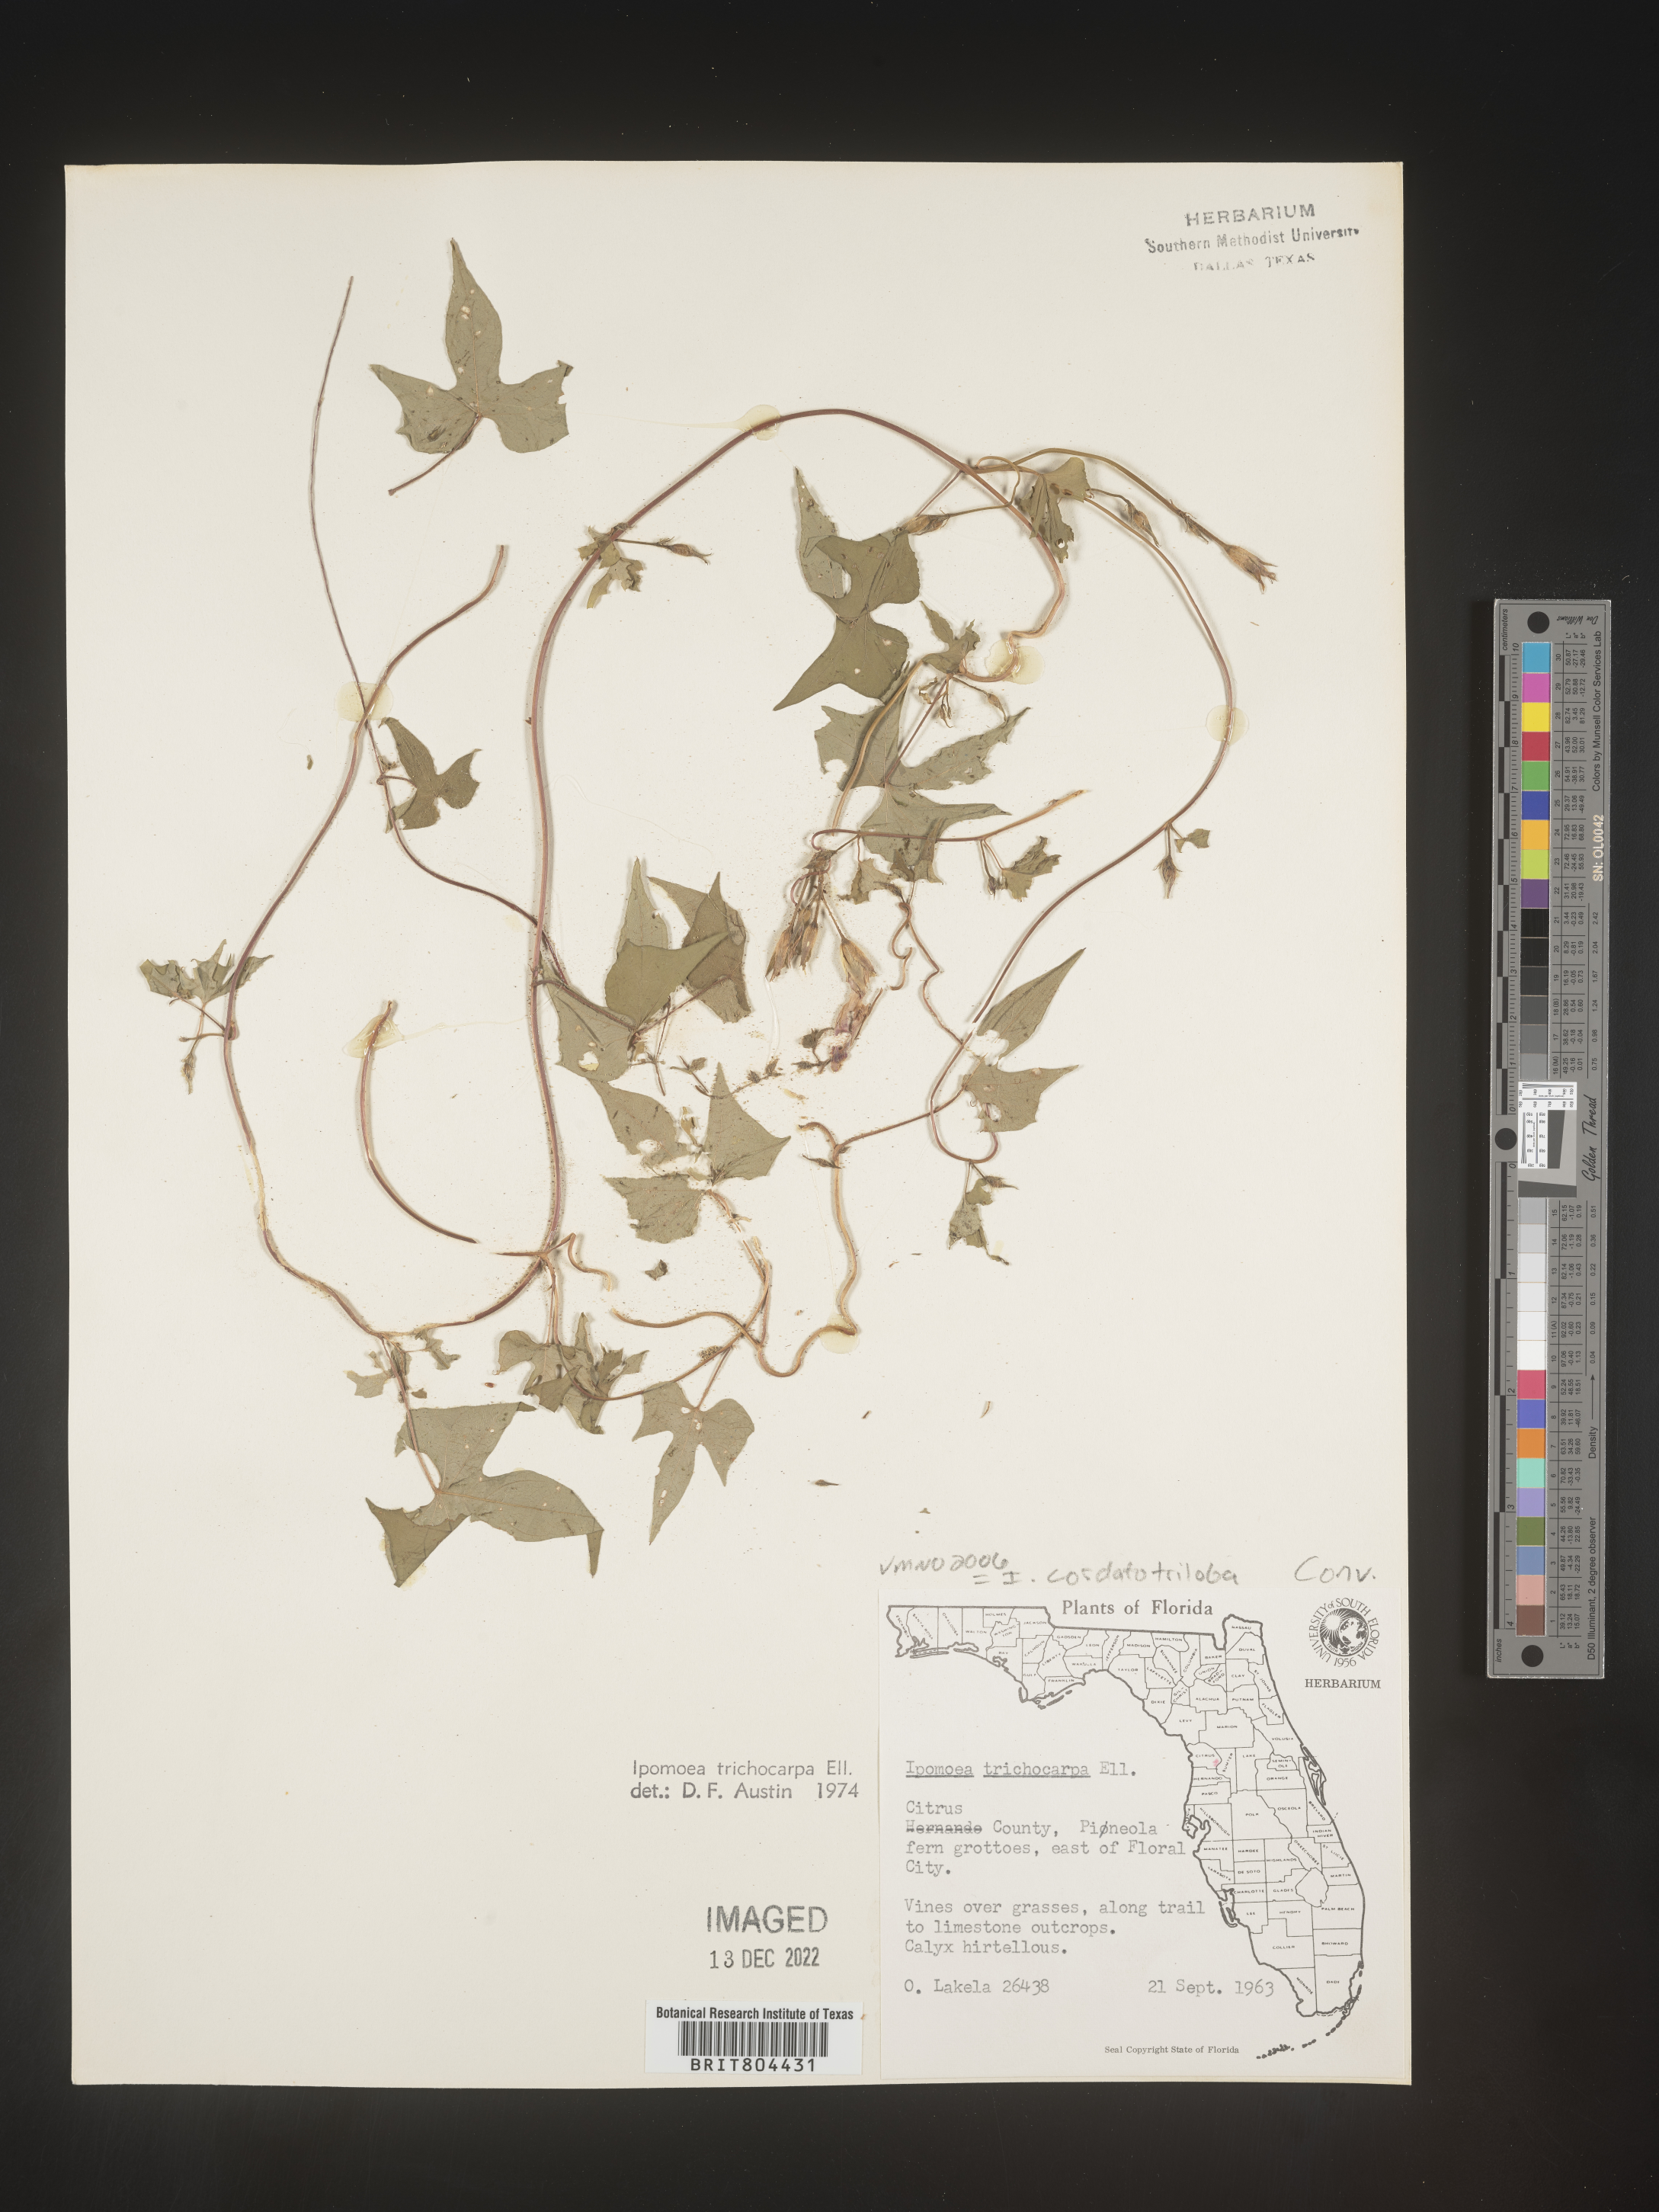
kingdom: Plantae
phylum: Tracheophyta
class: Magnoliopsida
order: Solanales
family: Convolvulaceae
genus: Ipomoea
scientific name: Ipomoea cordatotriloba
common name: Cotton morning glory
